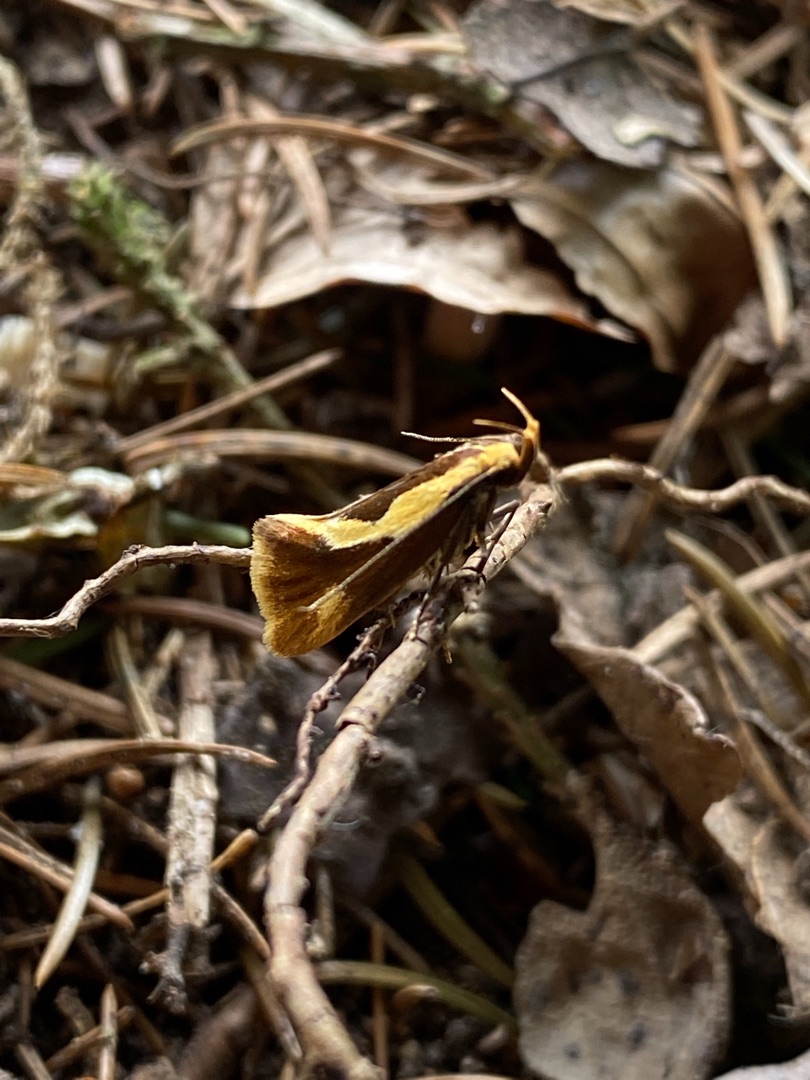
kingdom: Animalia
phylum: Arthropoda
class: Insecta
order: Lepidoptera
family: Oecophoridae
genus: Harpella
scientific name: Harpella forficella
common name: Kæmpeprydvinge
